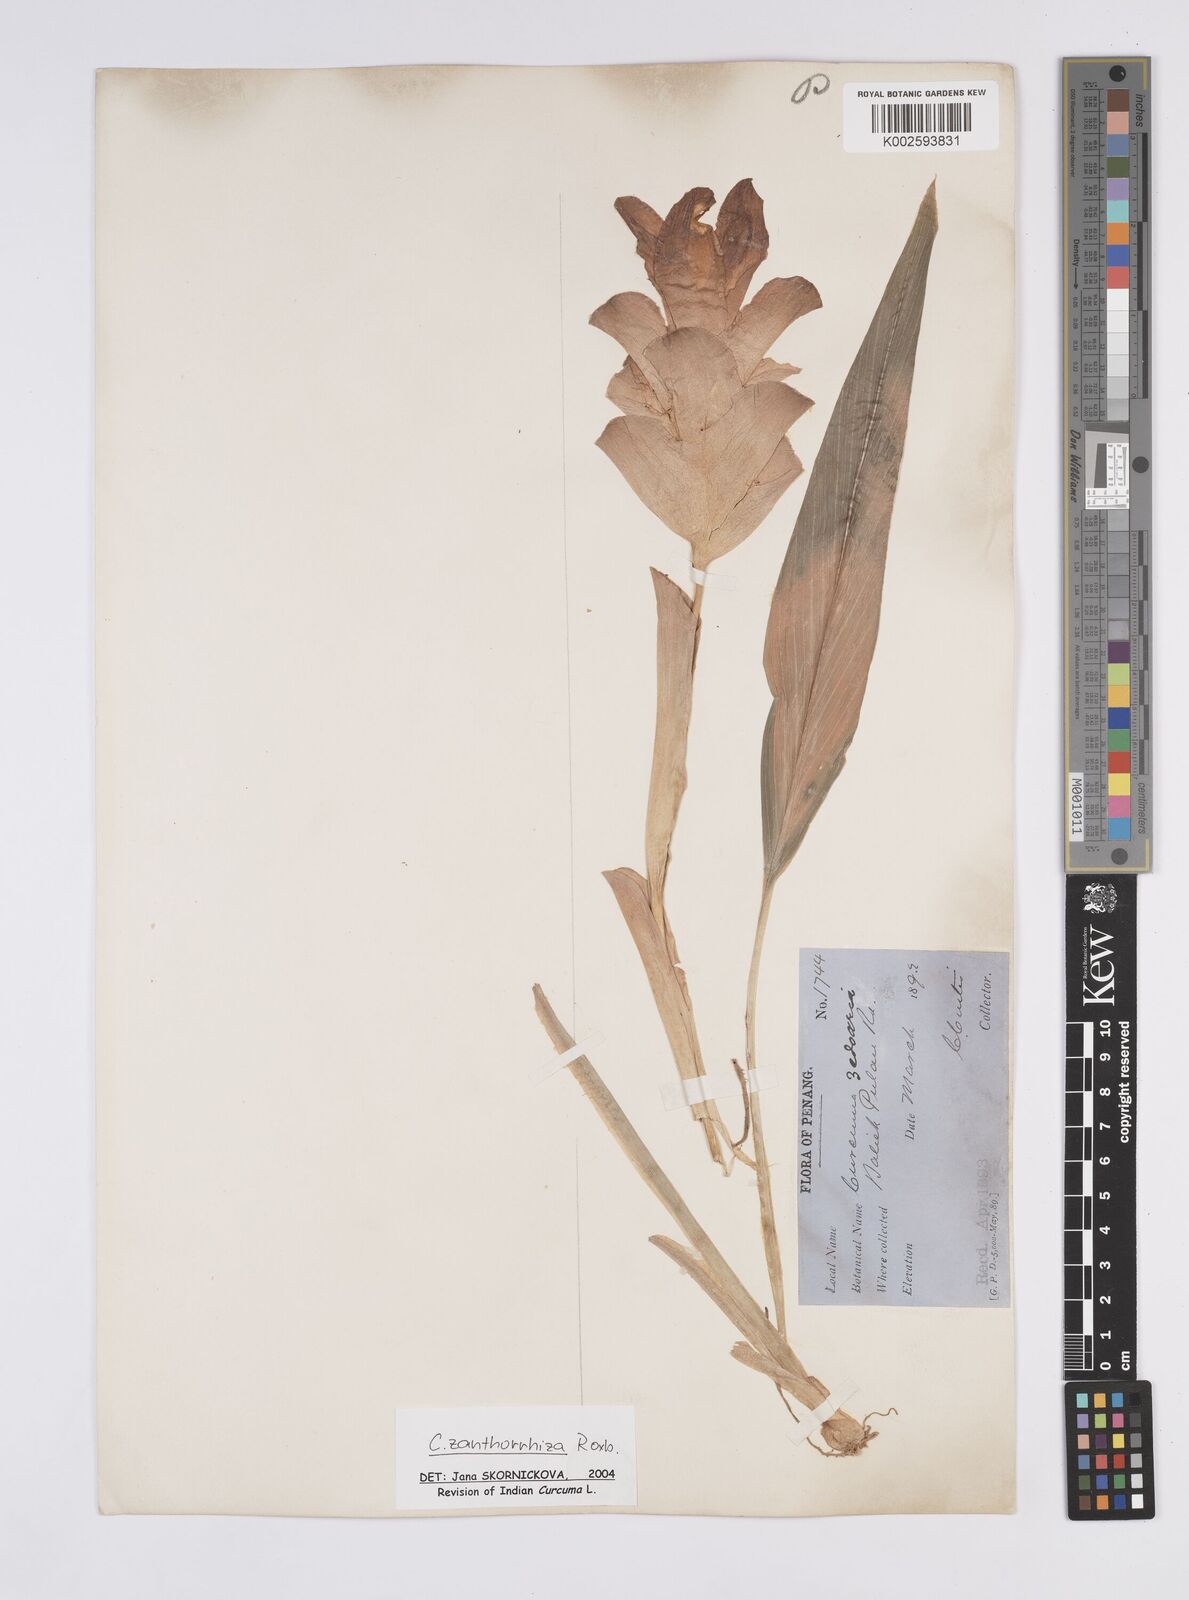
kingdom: Plantae
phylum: Tracheophyta
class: Liliopsida
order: Zingiberales
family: Zingiberaceae
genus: Curcuma
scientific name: Curcuma zanthorrhiza
